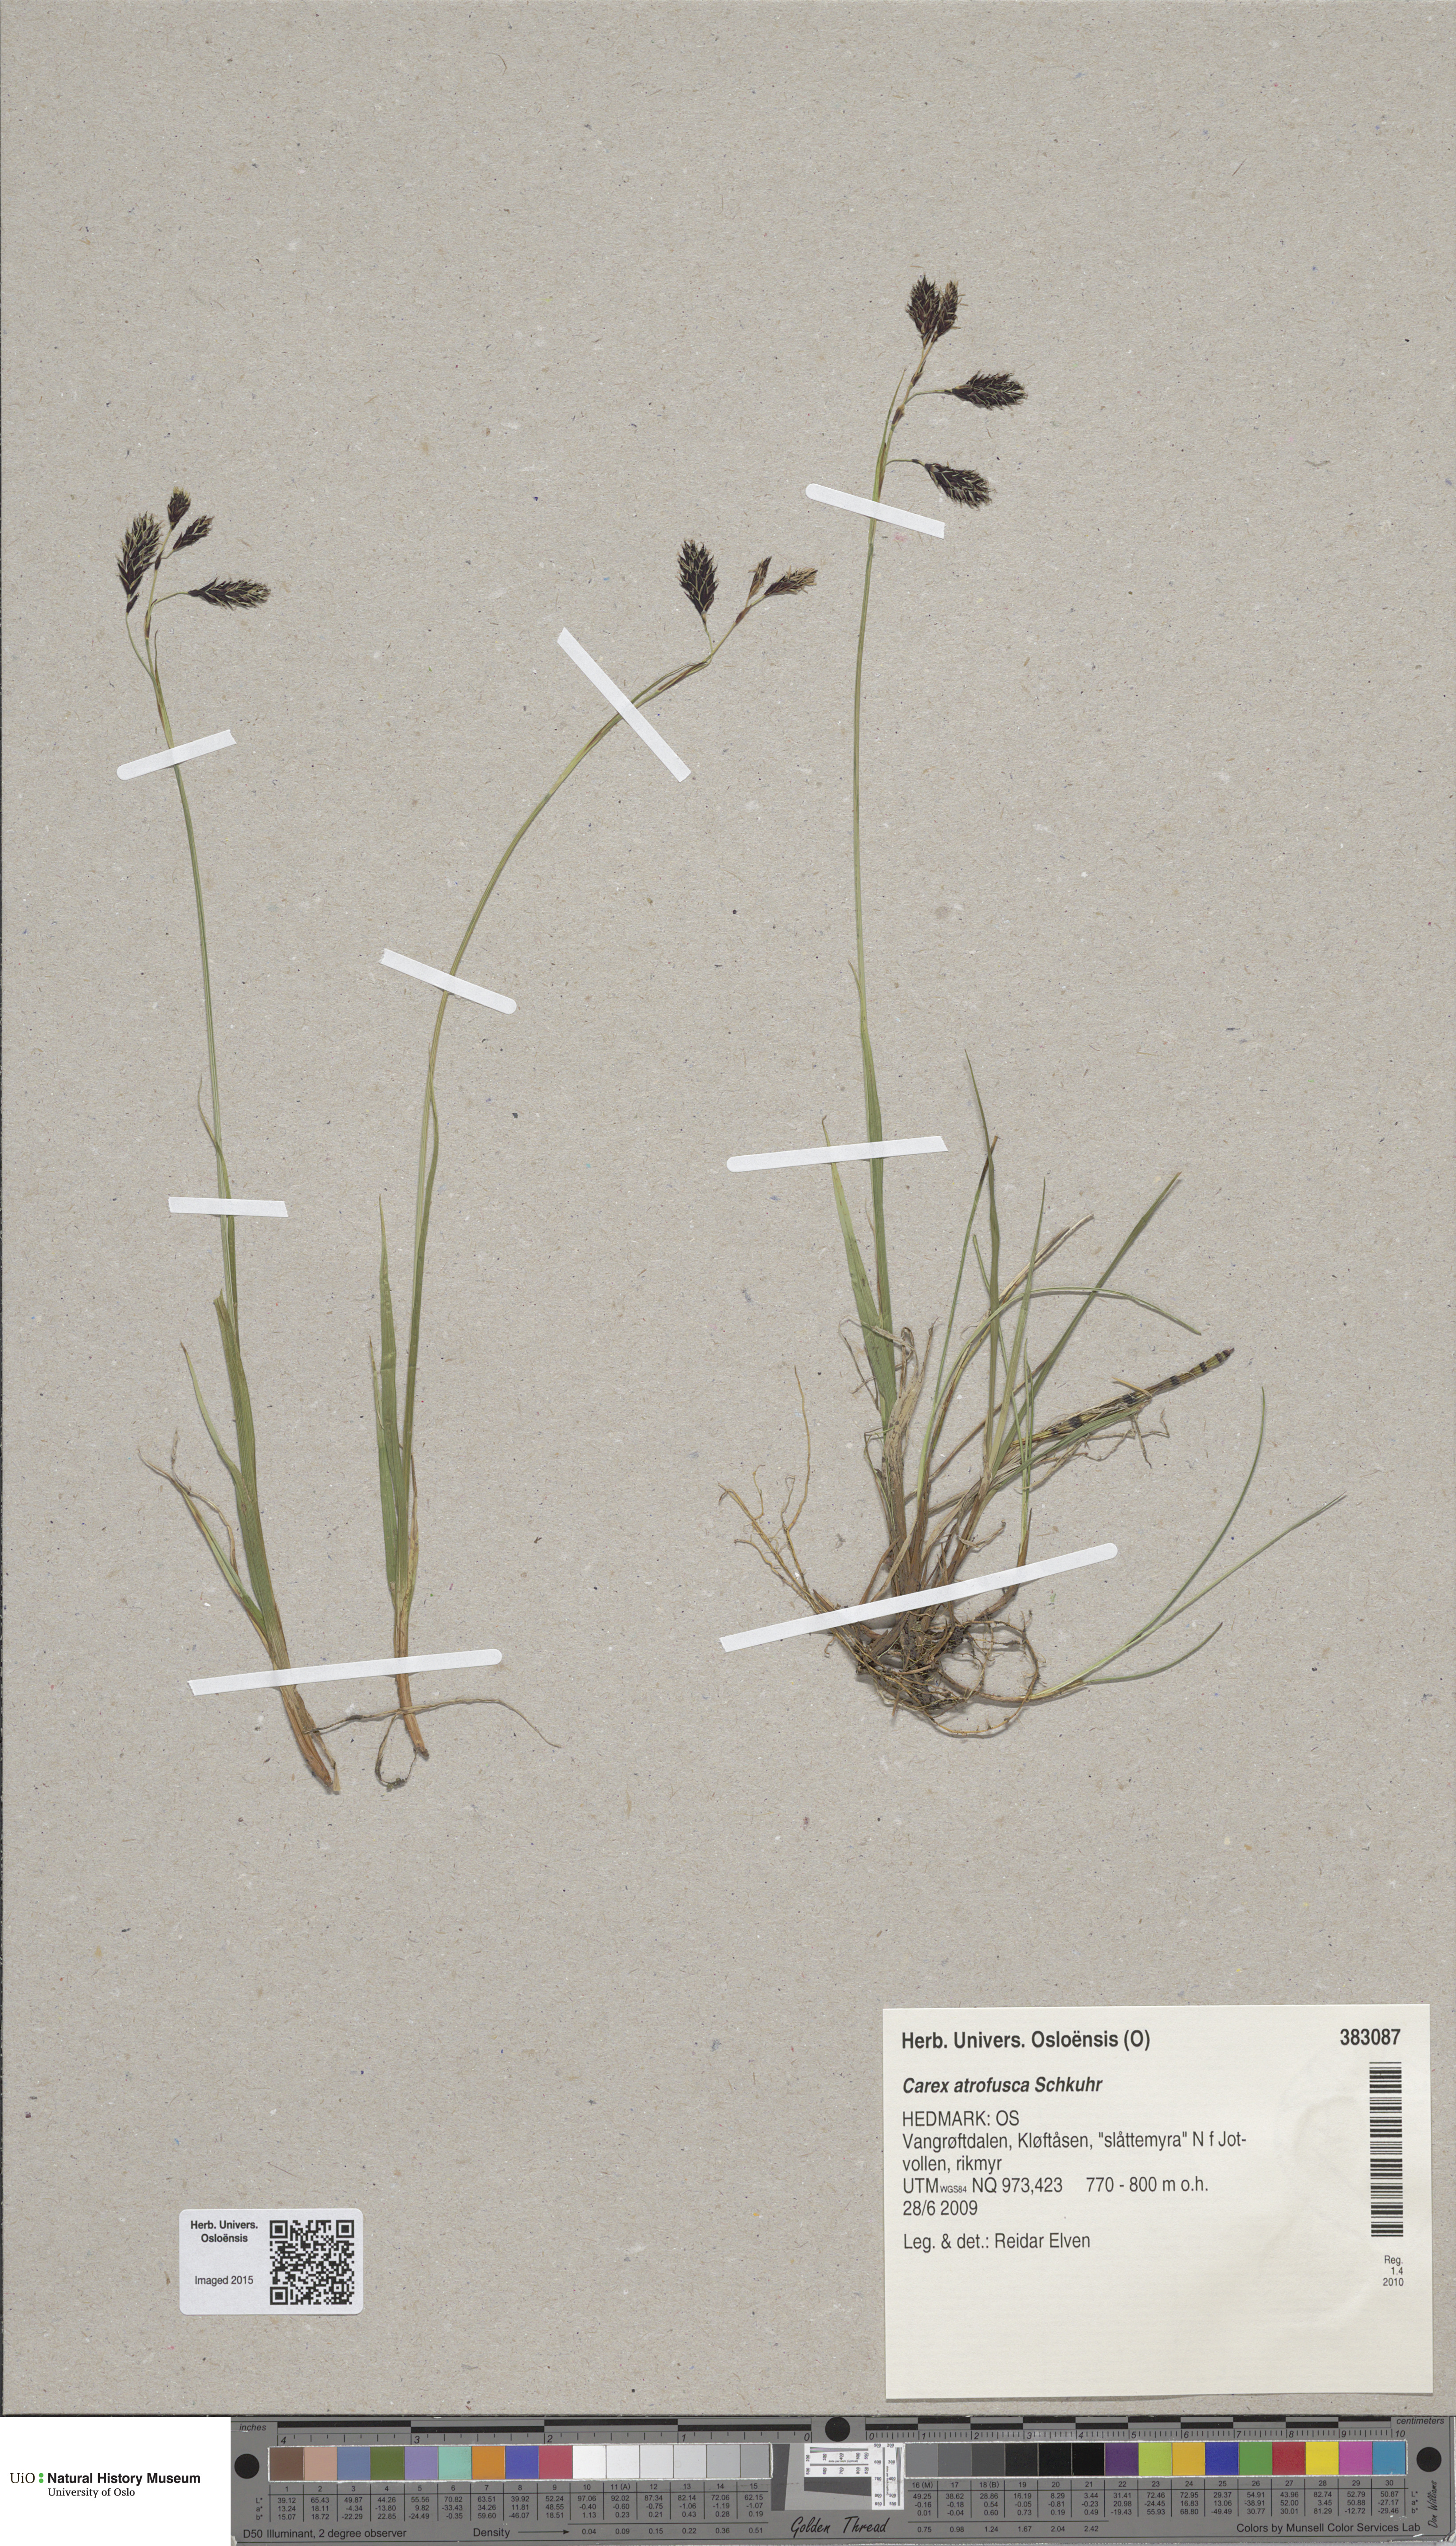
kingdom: Plantae
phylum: Tracheophyta
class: Liliopsida
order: Poales
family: Cyperaceae
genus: Carex
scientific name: Carex atrofusca
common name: Scorched alpine-sedge
